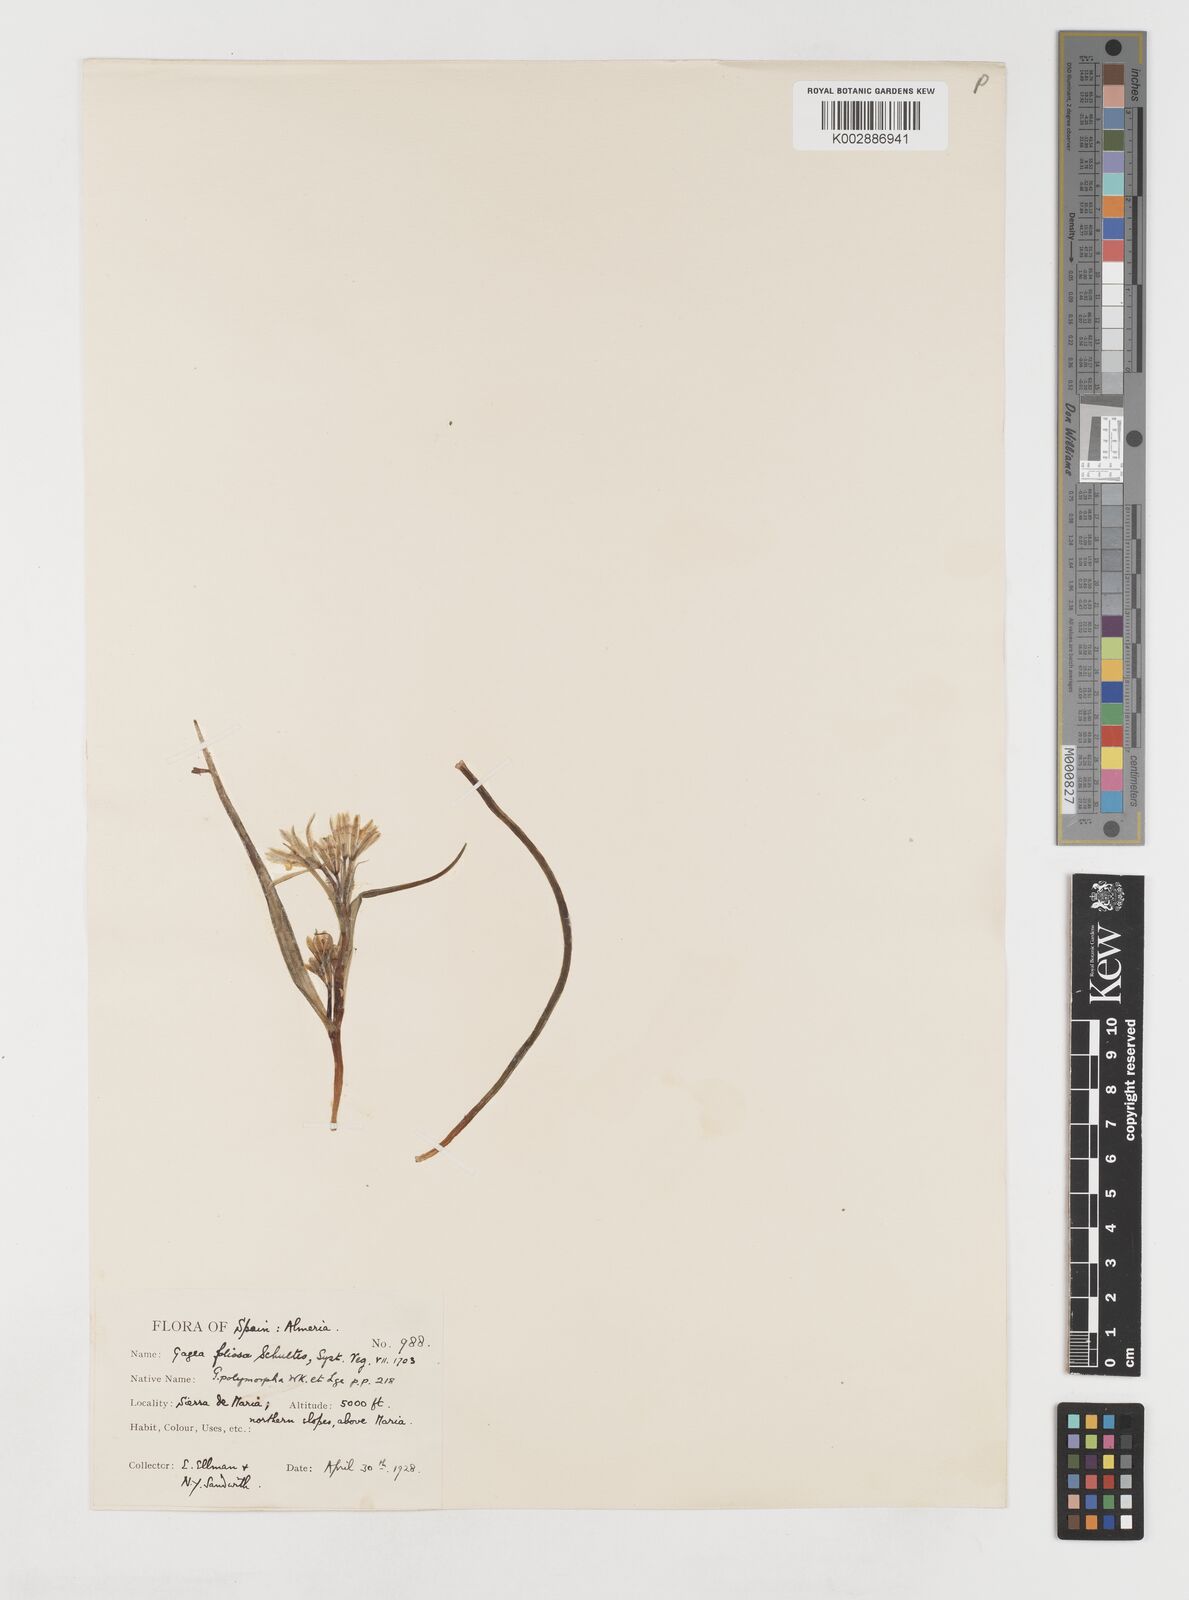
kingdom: Plantae
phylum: Tracheophyta
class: Liliopsida
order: Liliales
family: Liliaceae
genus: Gagea
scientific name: Gagea foliosa
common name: Leafy gagea
